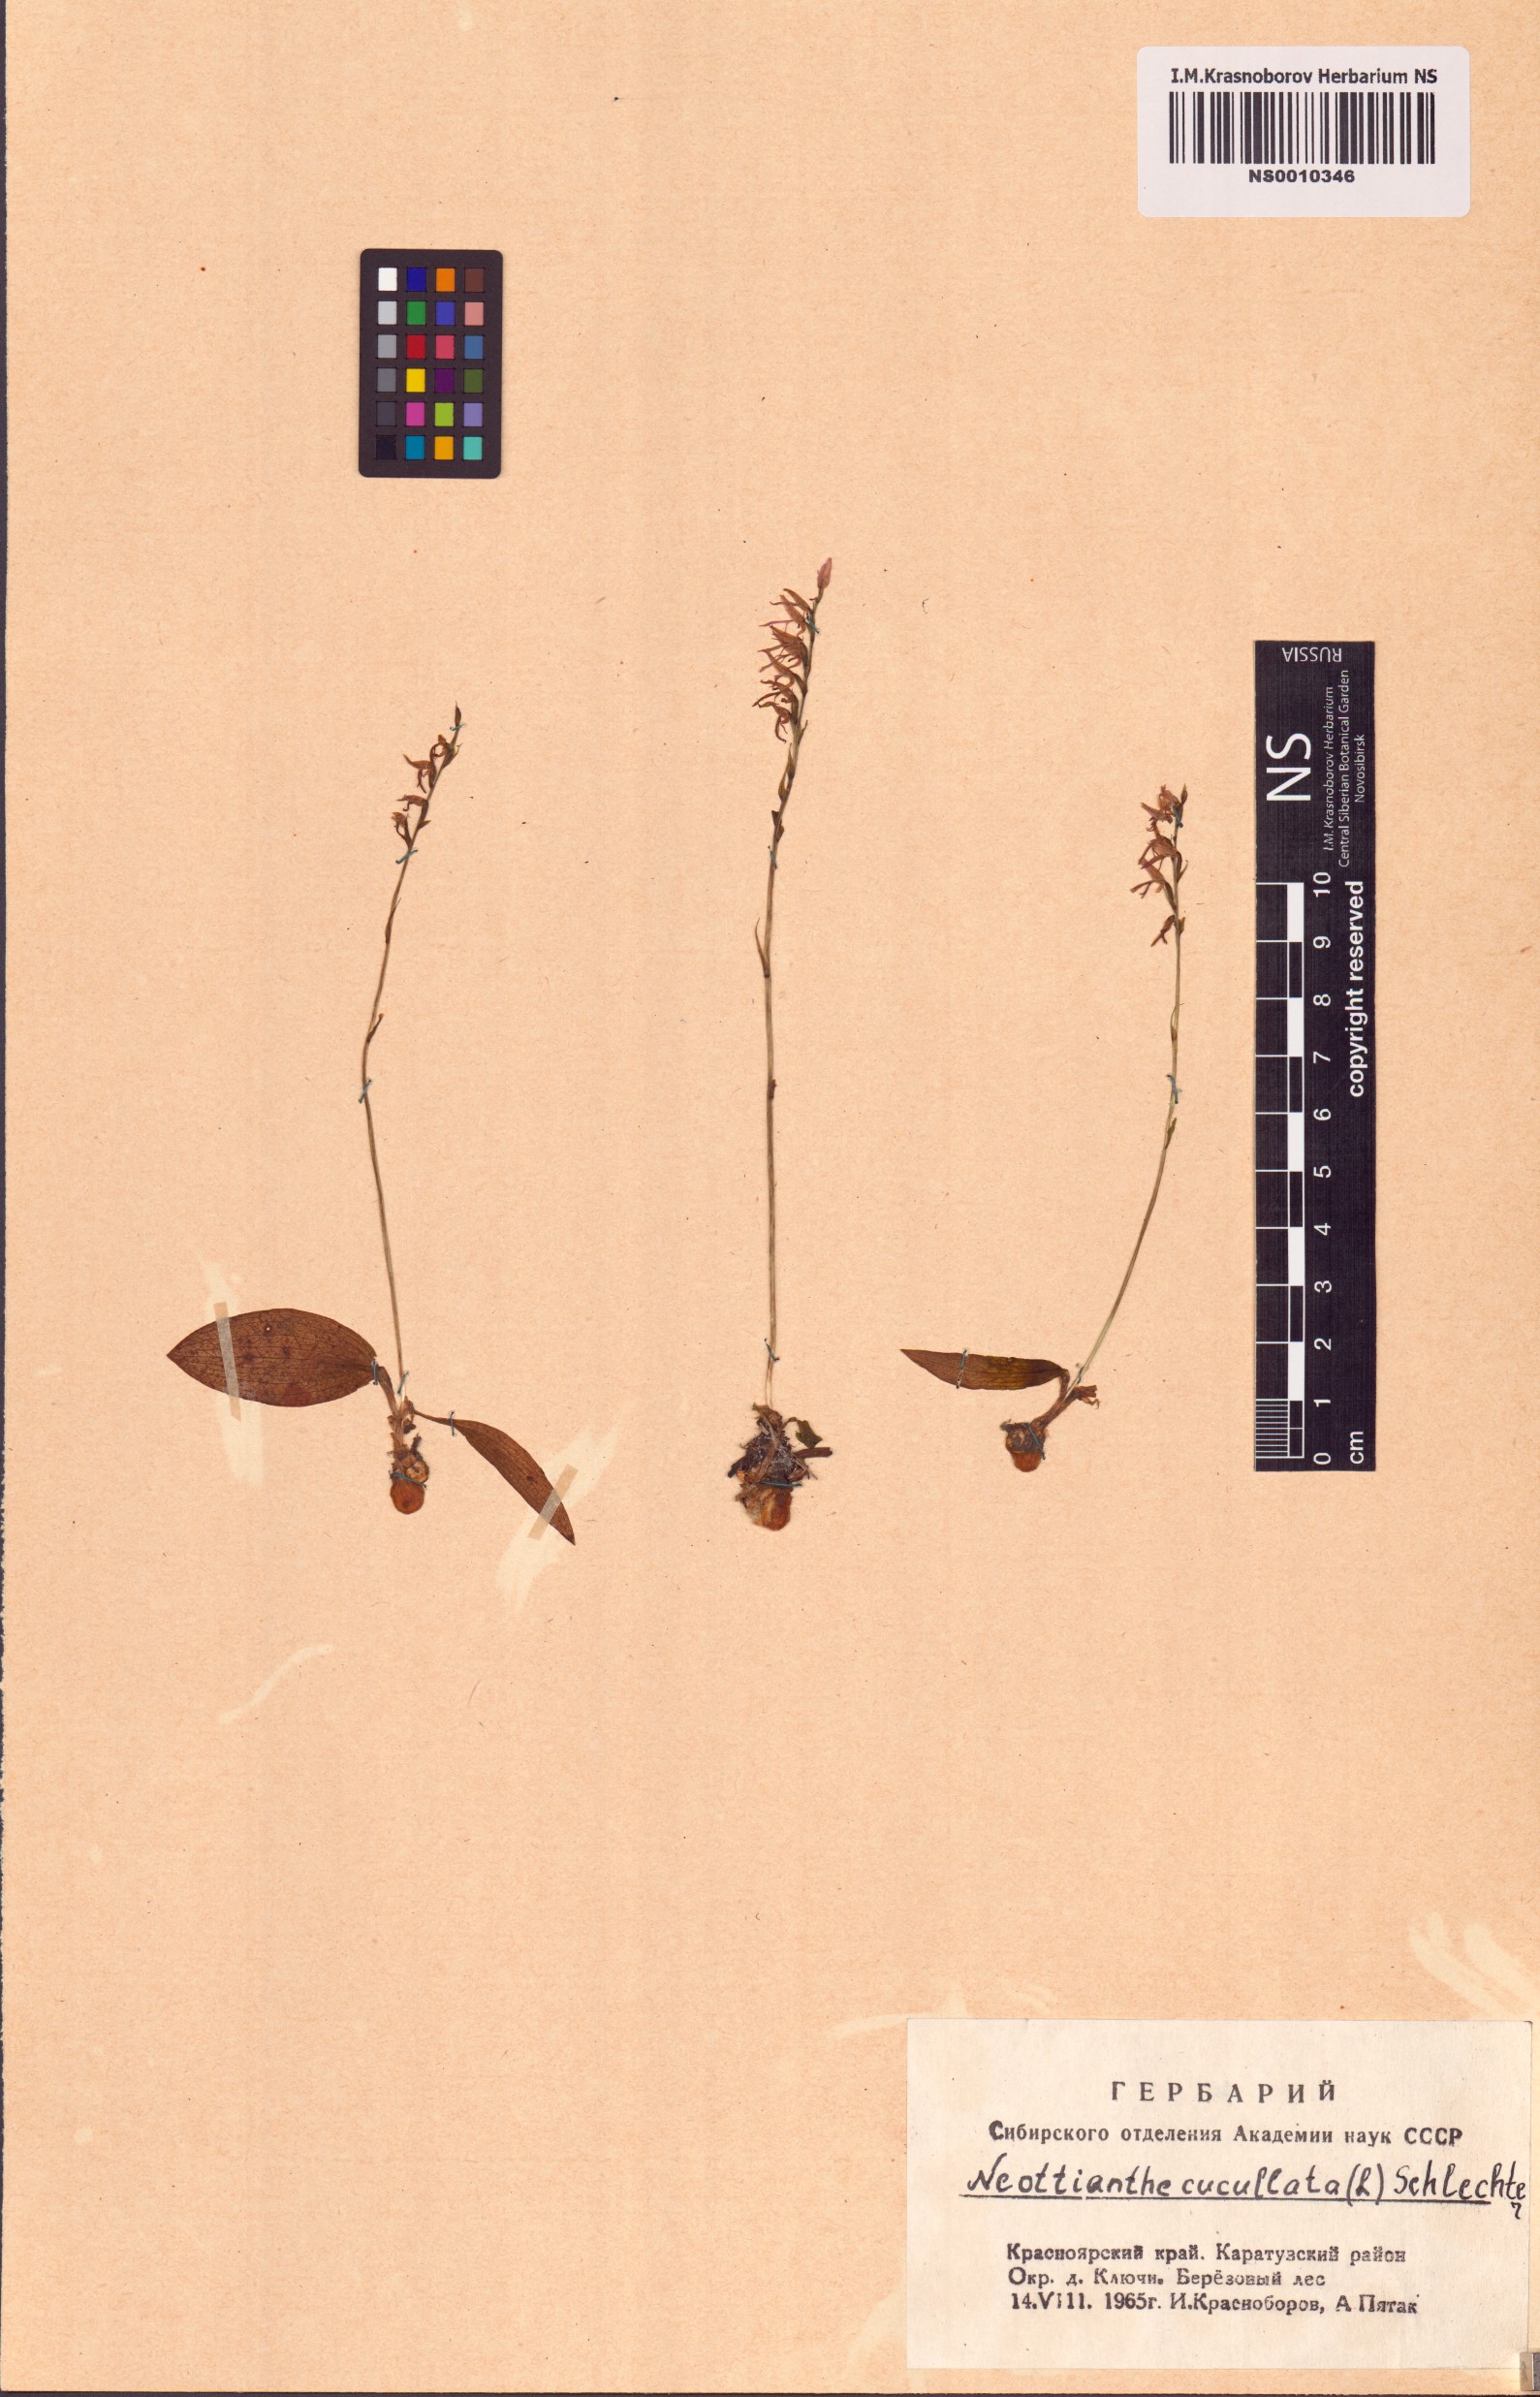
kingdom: Plantae
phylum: Tracheophyta
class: Liliopsida
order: Asparagales
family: Orchidaceae
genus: Hemipilia
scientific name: Hemipilia cucullata
